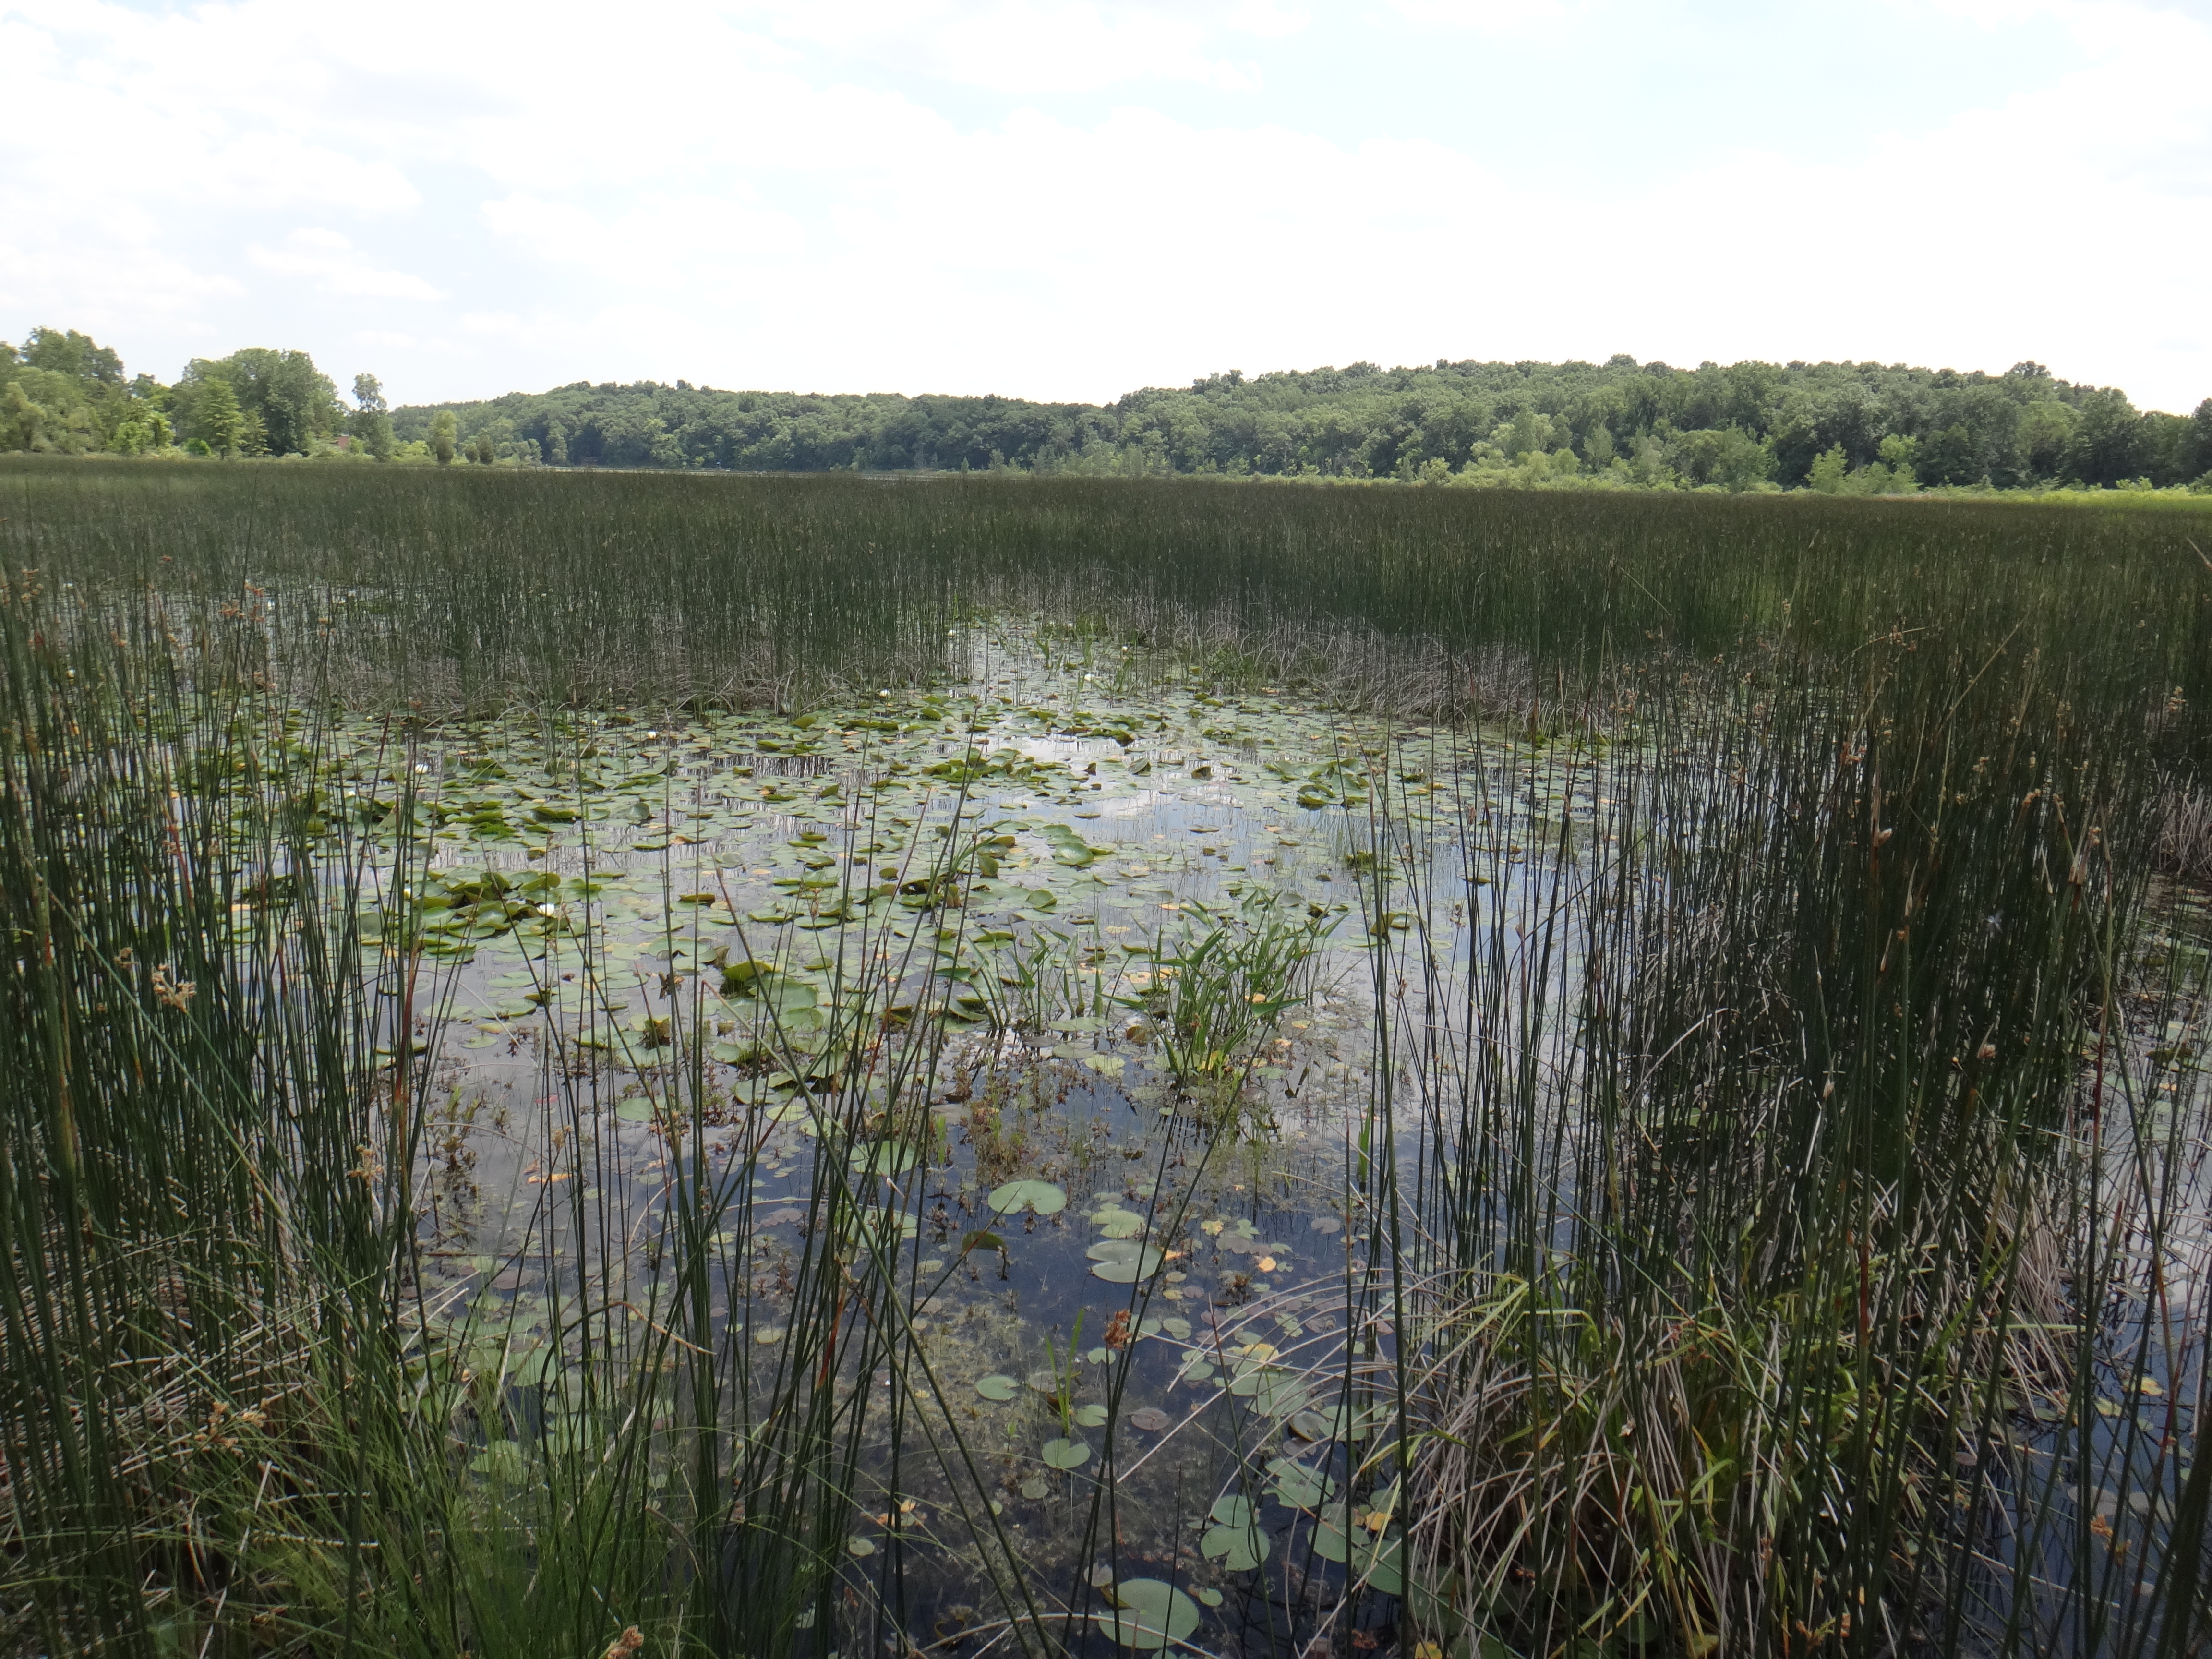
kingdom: Plantae
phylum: Tracheophyta
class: Liliopsida
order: Poales
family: Cyperaceae
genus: Schoenoplectus
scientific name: Schoenoplectus tabernaemontani
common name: Grey club-rush
